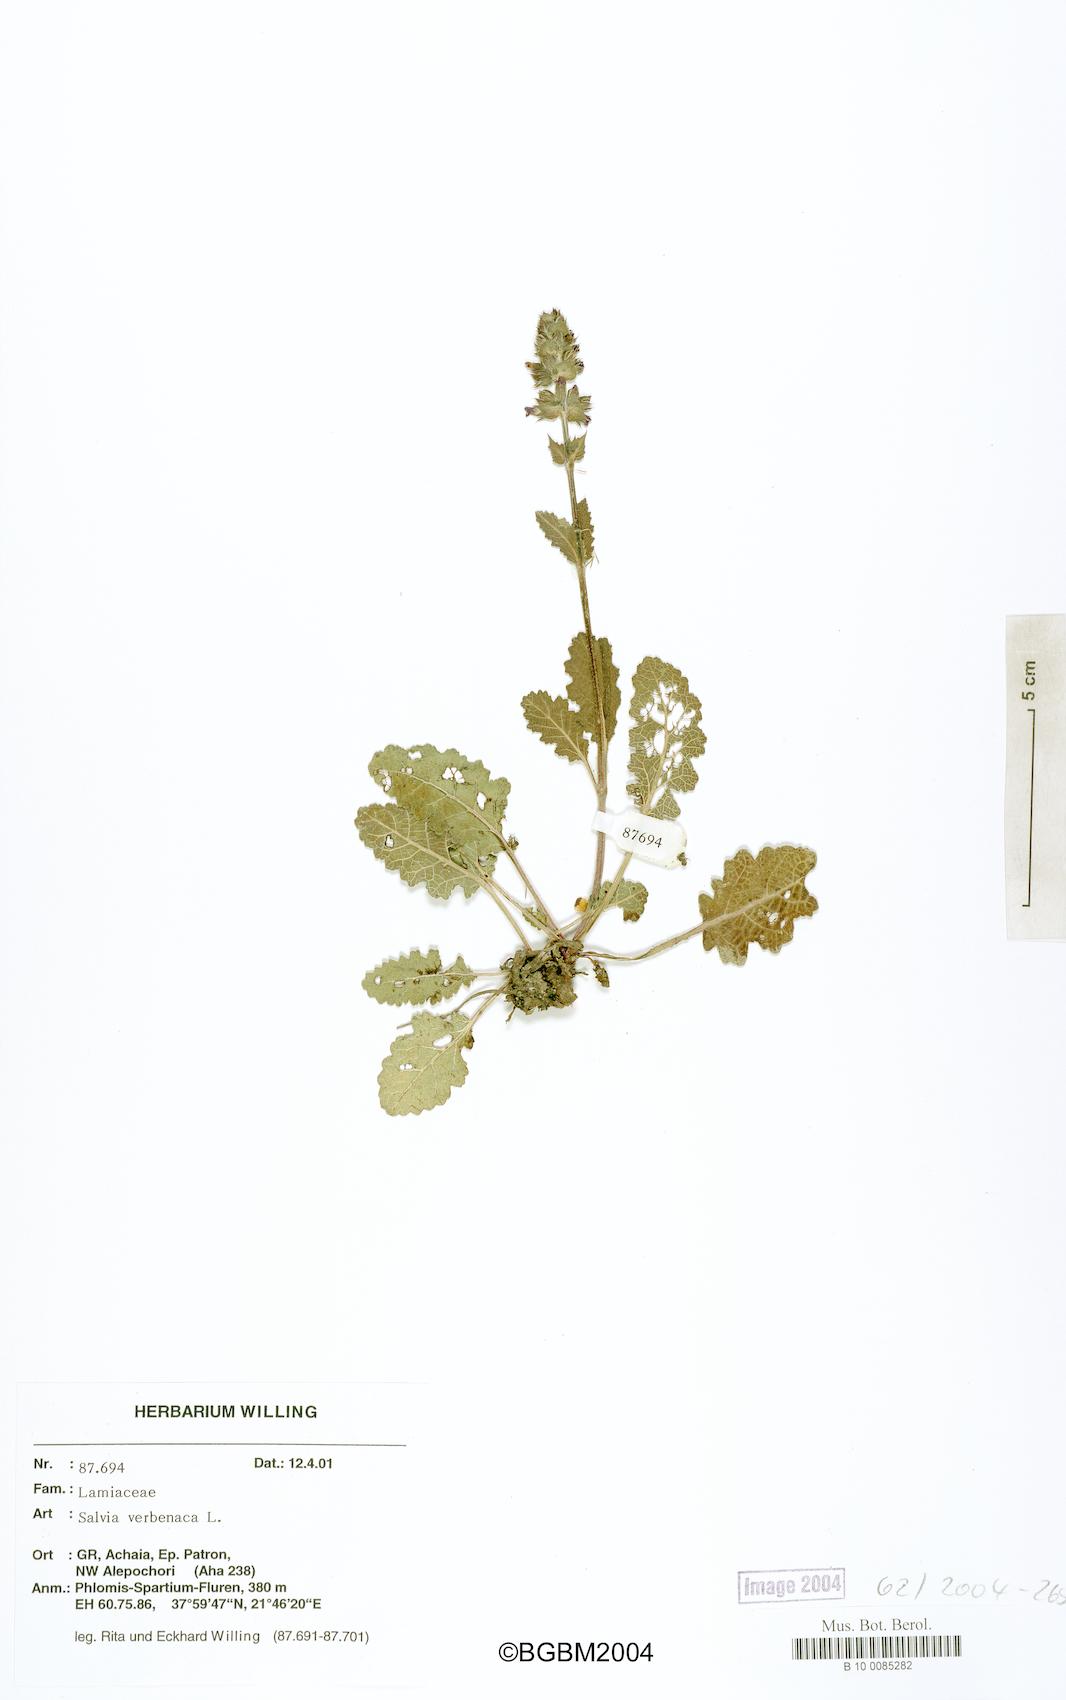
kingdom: Plantae
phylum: Tracheophyta
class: Magnoliopsida
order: Lamiales
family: Lamiaceae
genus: Salvia
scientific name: Salvia verbenaca
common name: Wild clary
